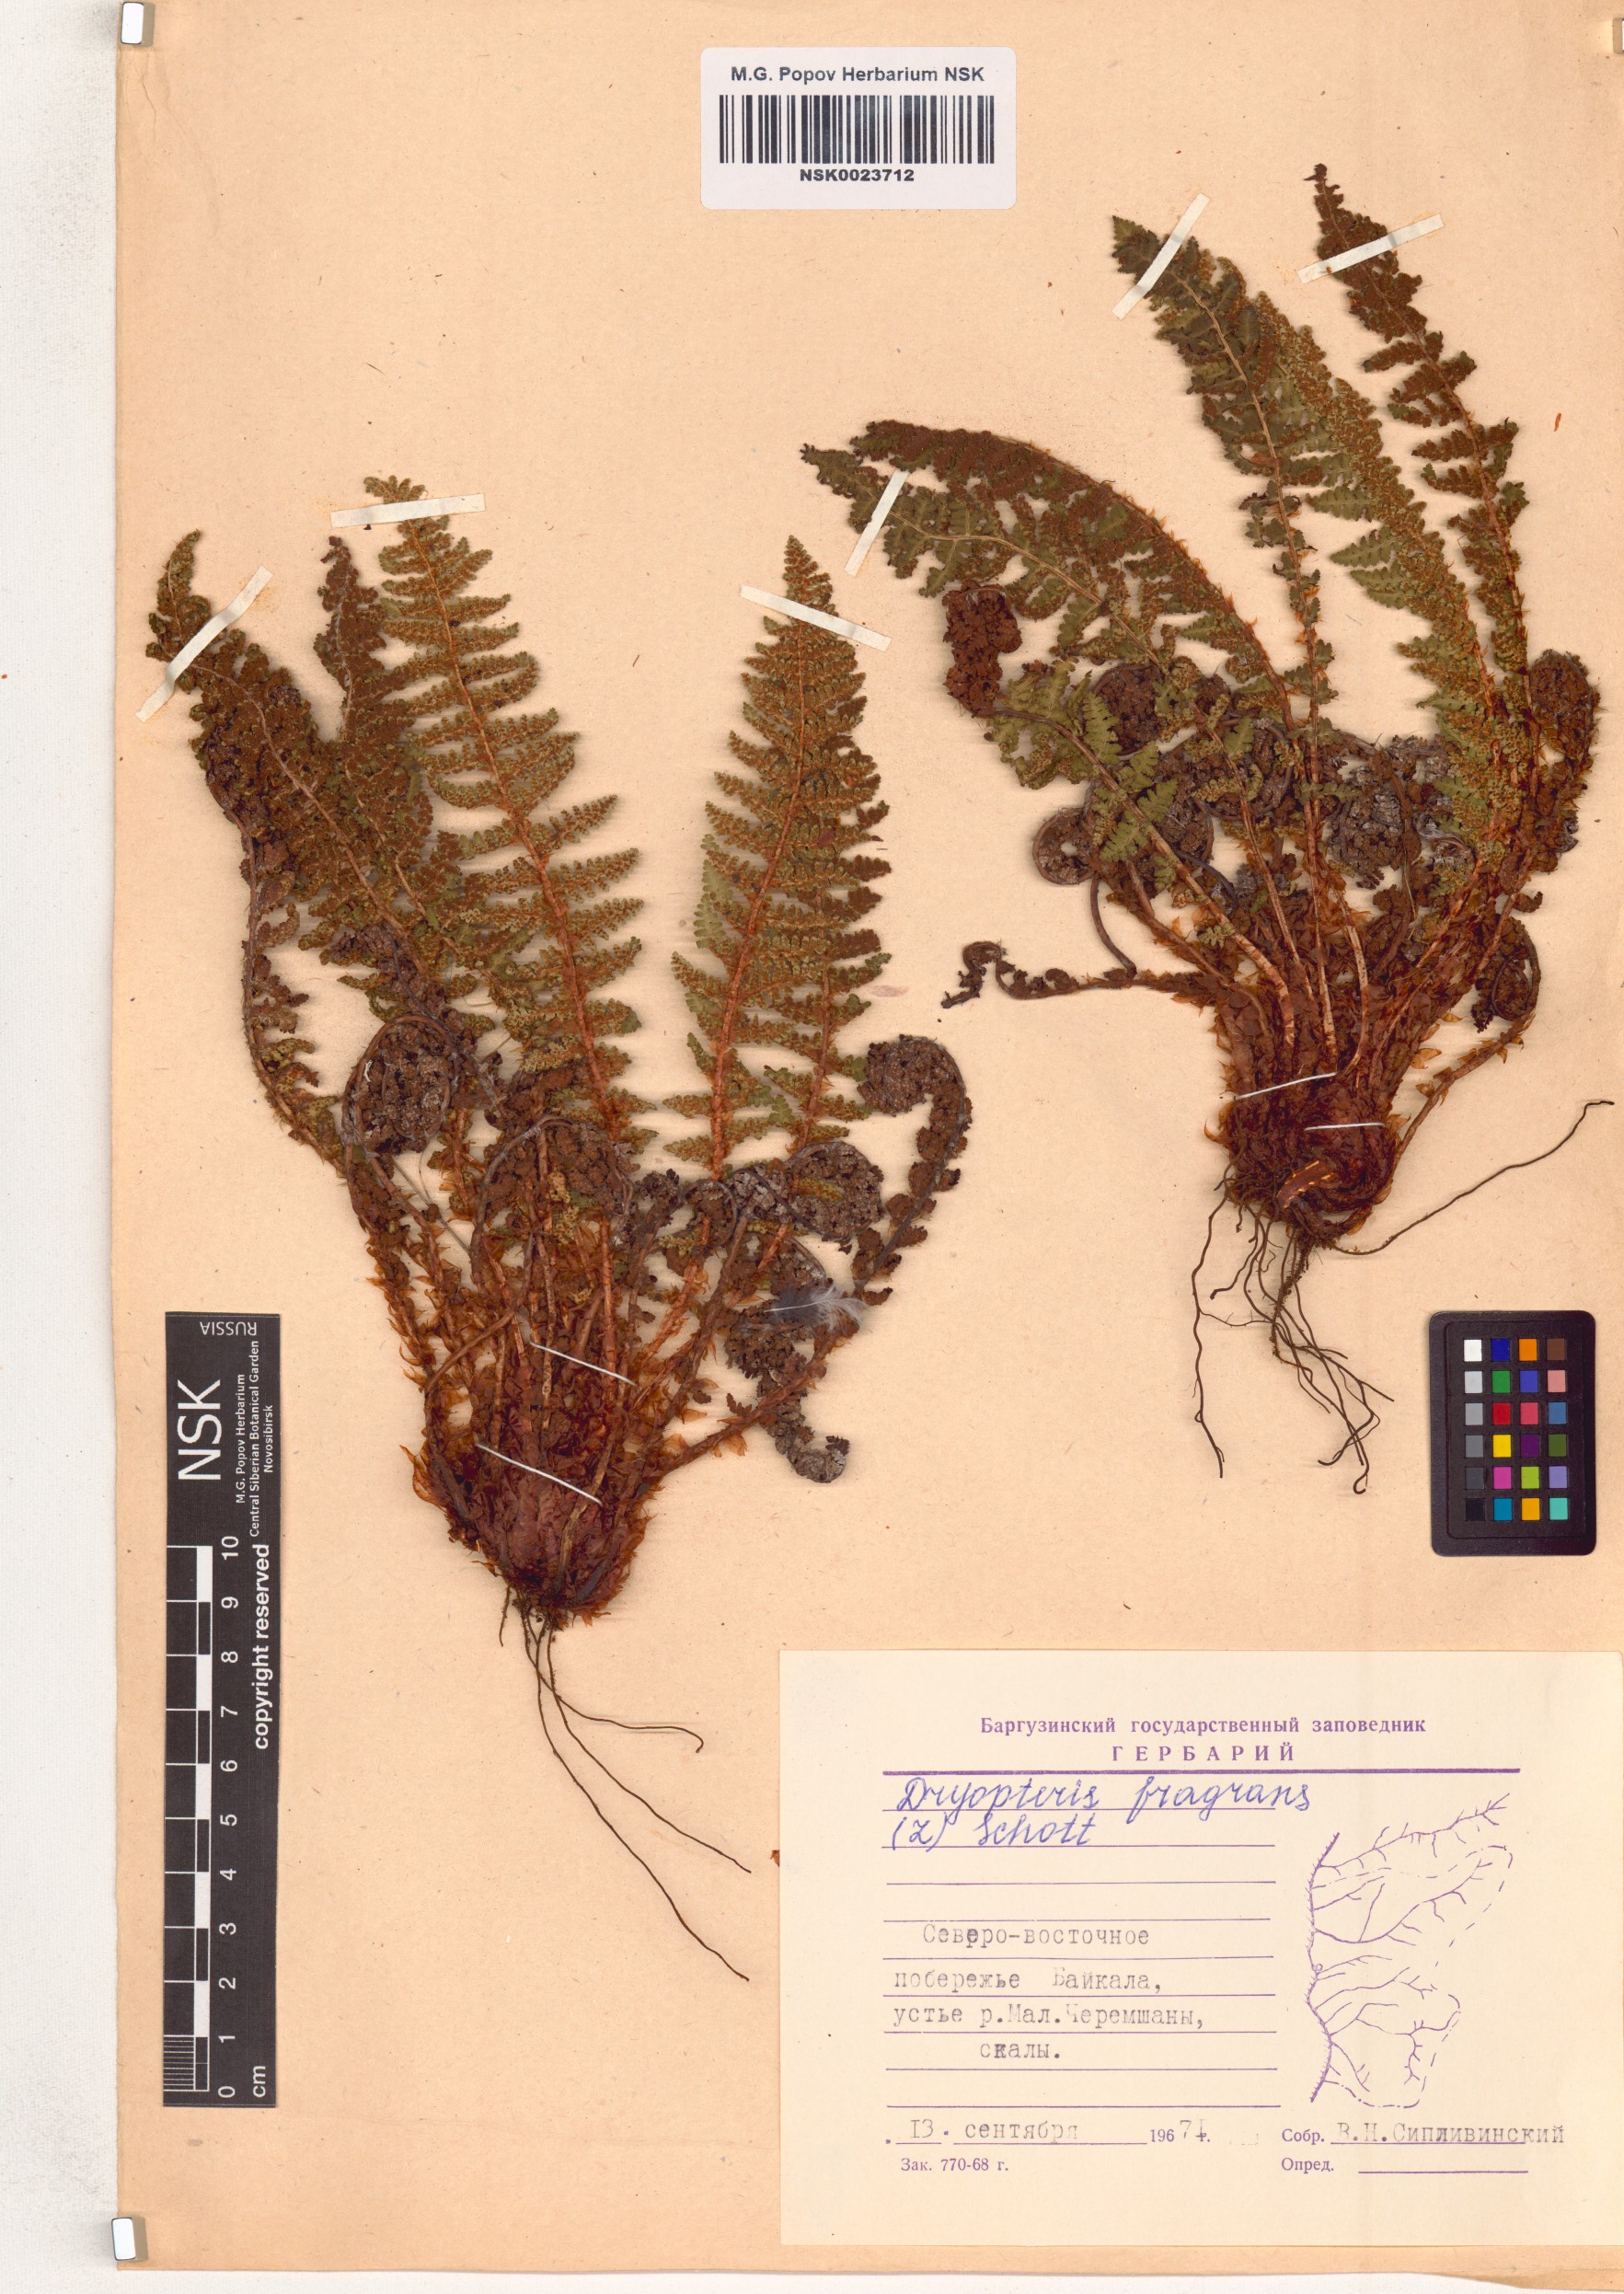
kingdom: Plantae
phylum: Tracheophyta
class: Polypodiopsida
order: Polypodiales
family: Dryopteridaceae
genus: Dryopteris
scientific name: Dryopteris fragrans
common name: Fragrant wood fern
